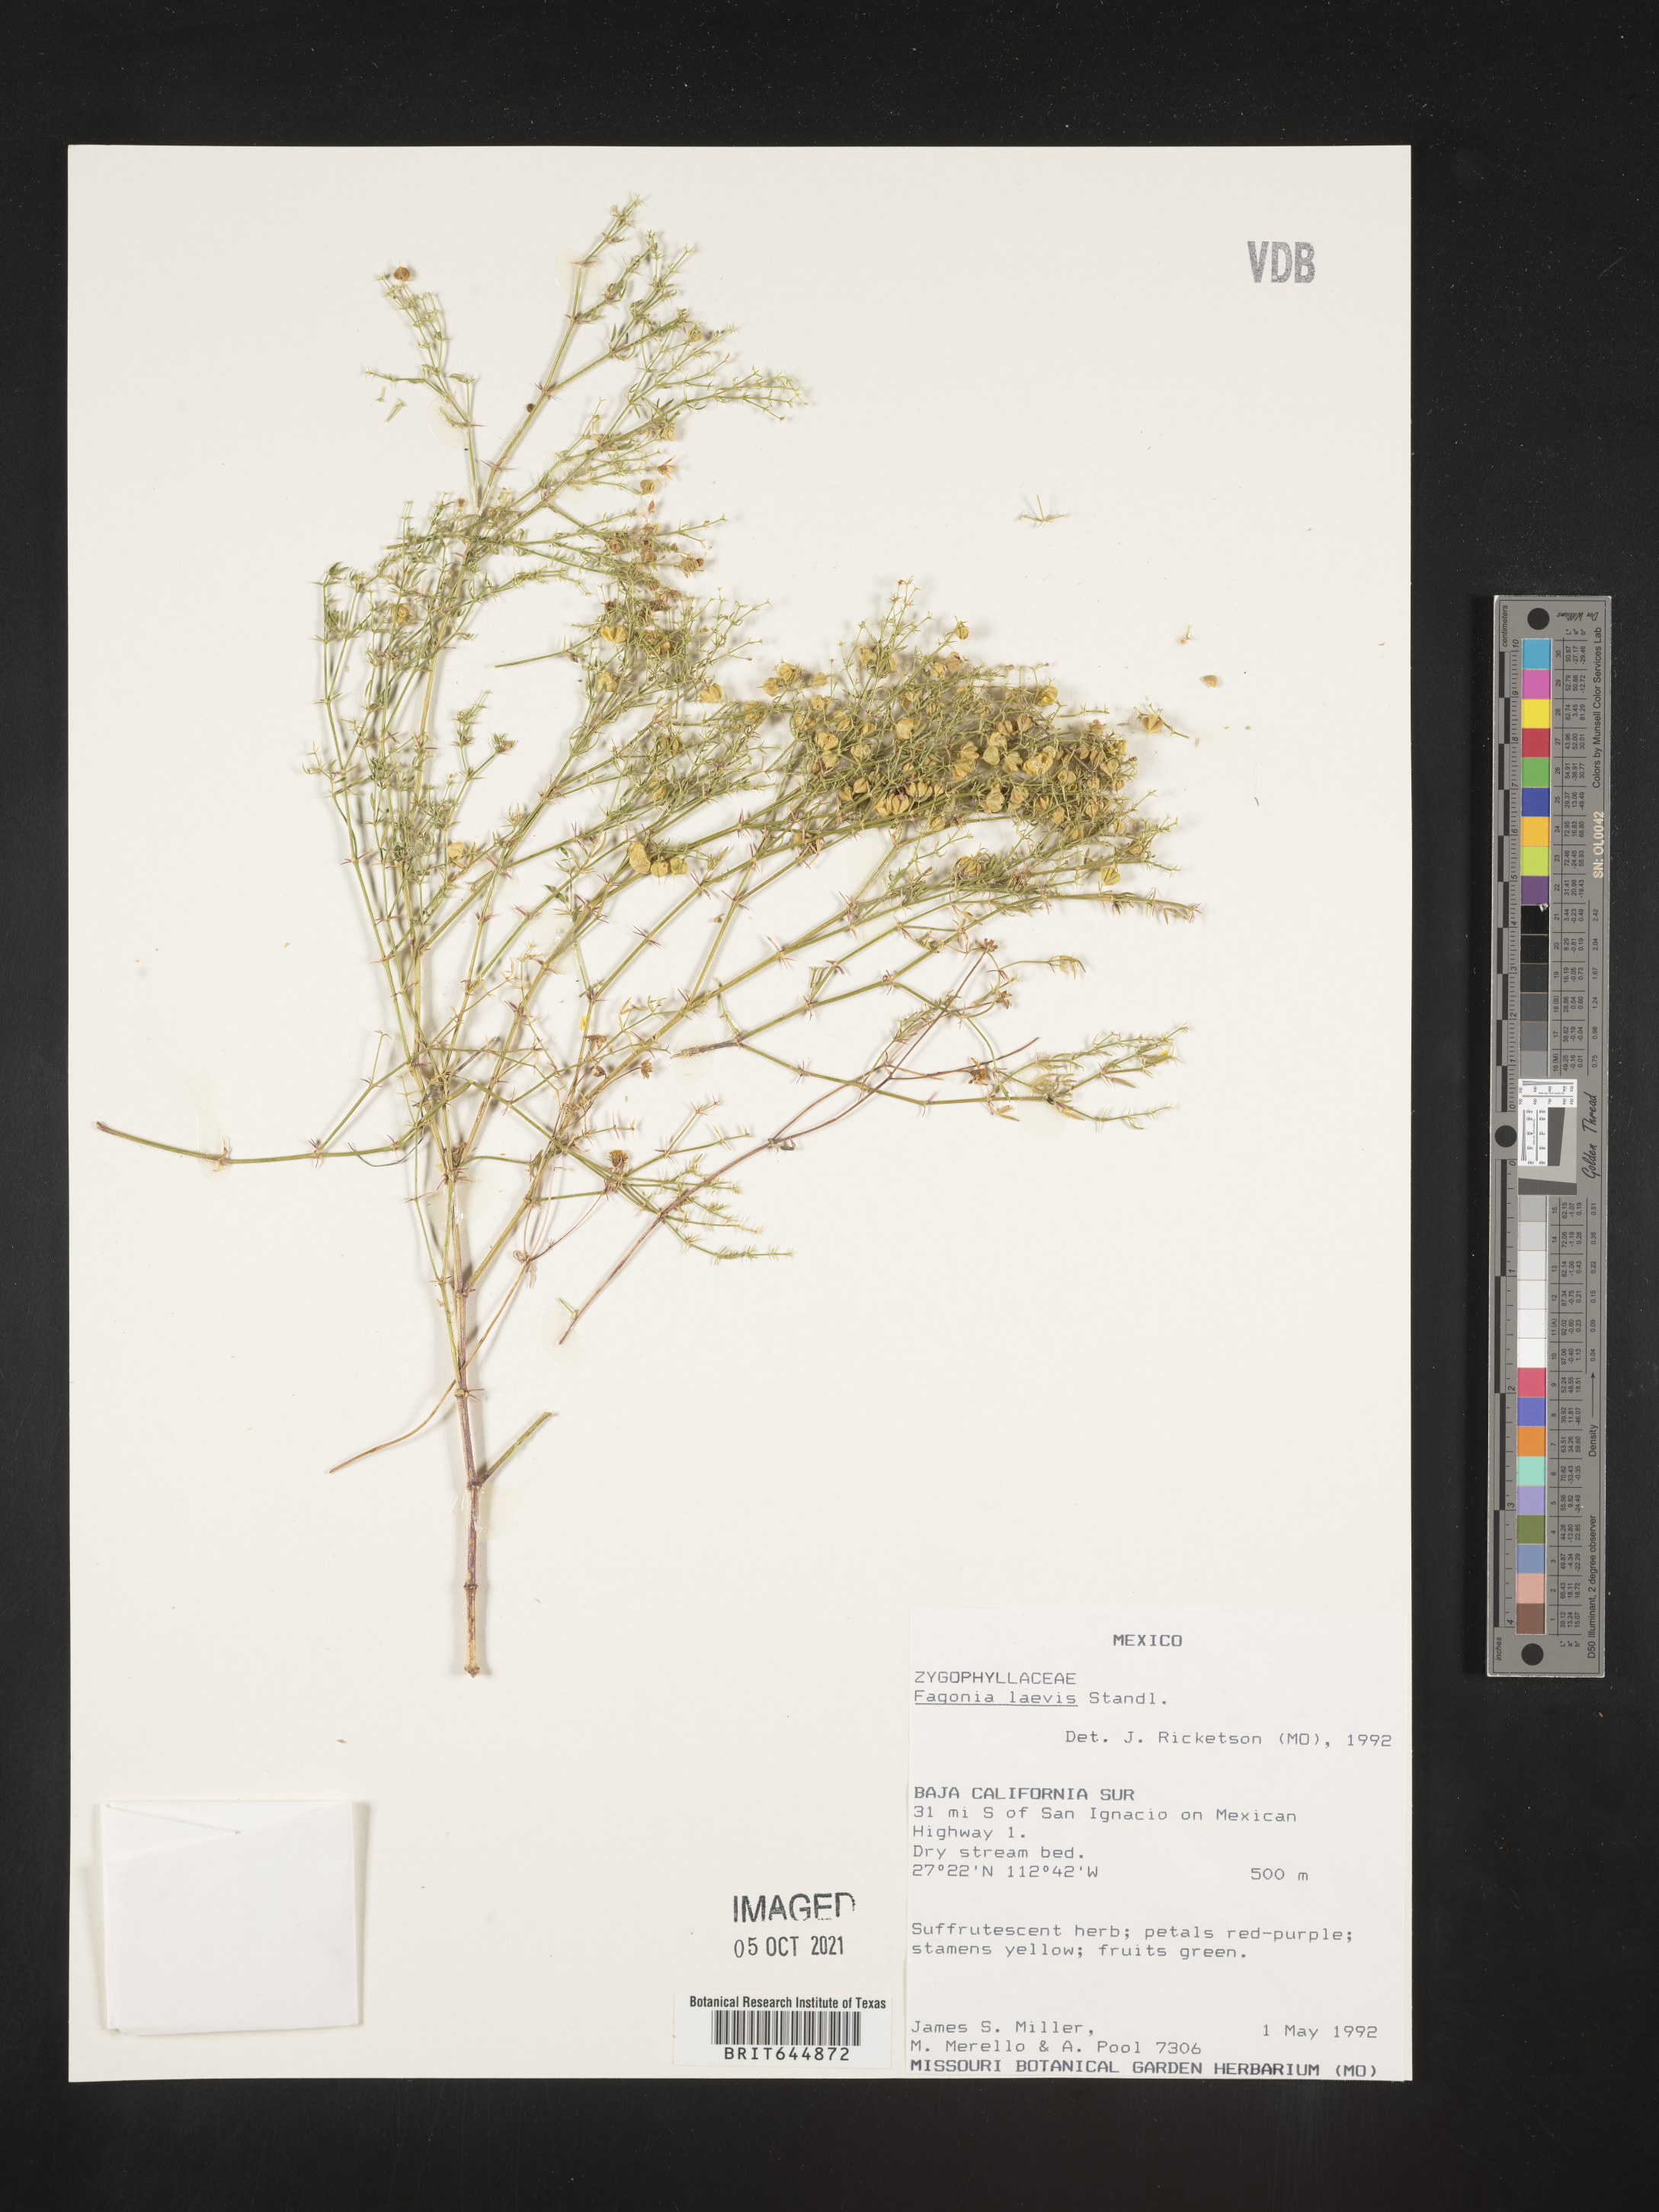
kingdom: Plantae
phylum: Tracheophyta
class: Magnoliopsida
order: Zygophyllales
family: Zygophyllaceae
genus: Fagonia
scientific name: Fagonia
